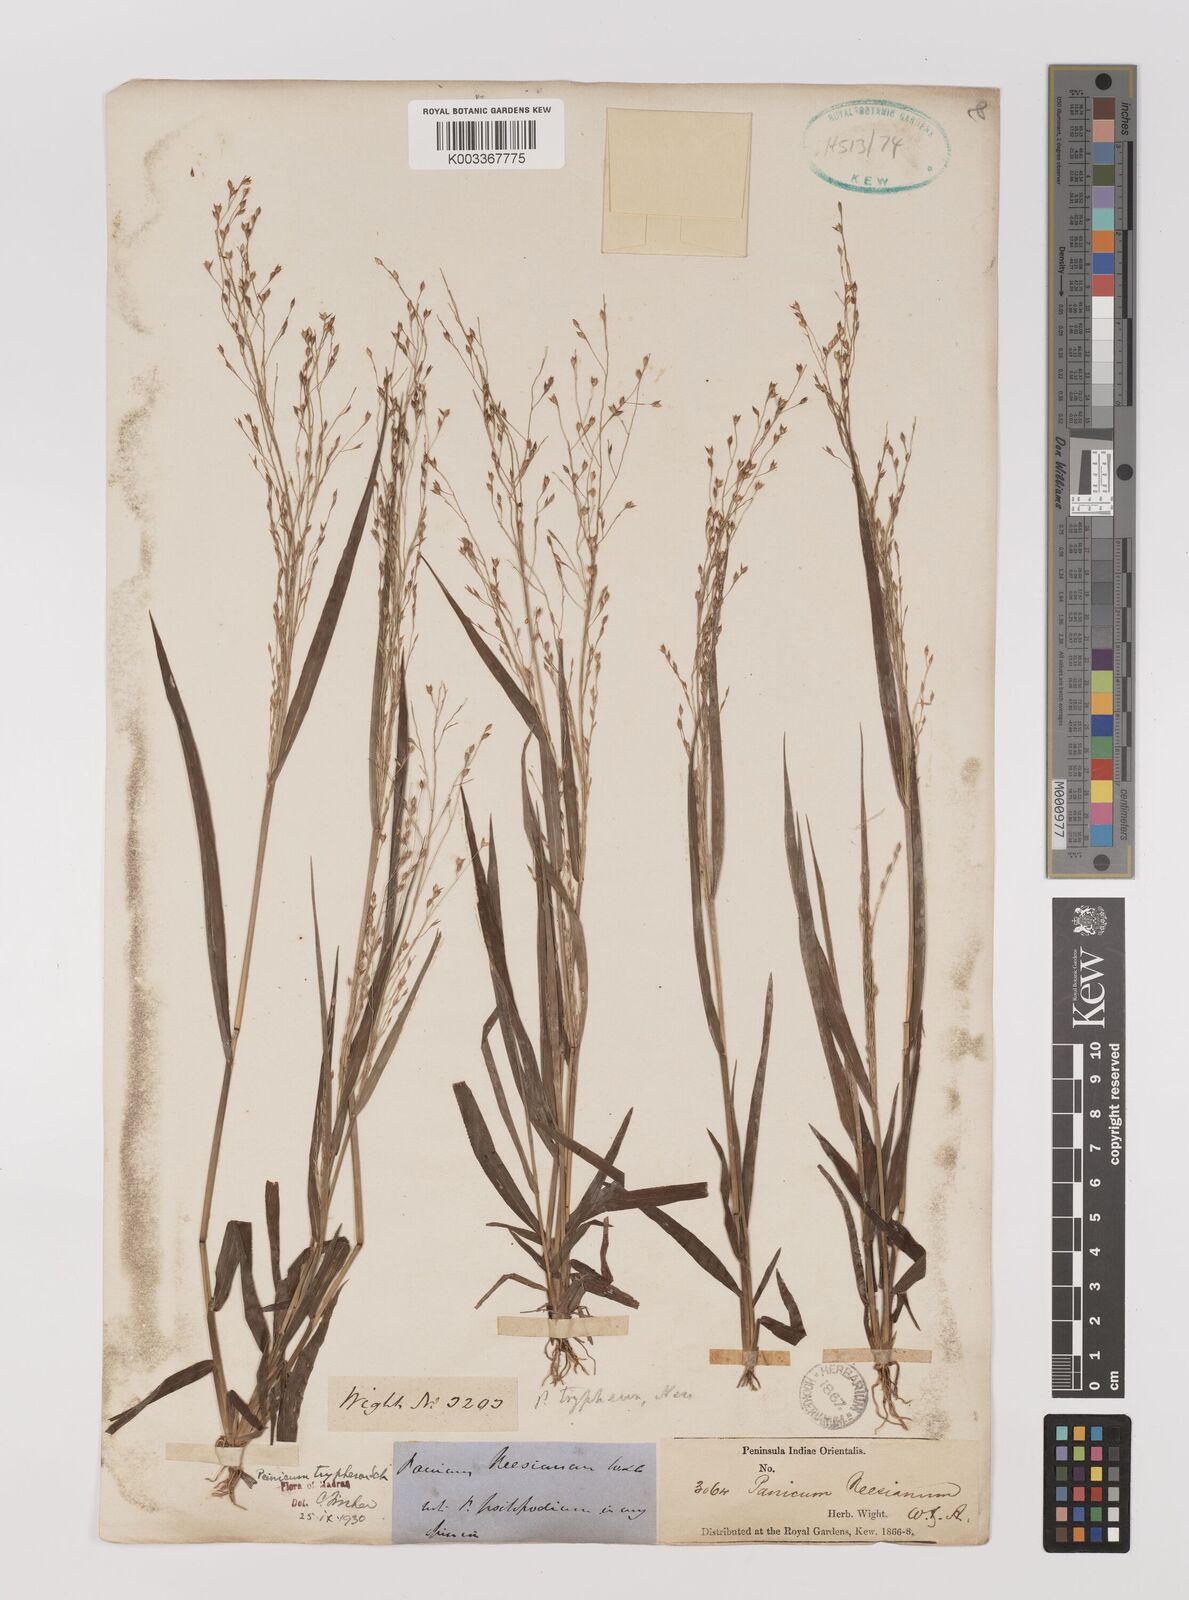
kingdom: Plantae
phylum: Tracheophyta
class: Liliopsida
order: Poales
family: Poaceae
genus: Panicum
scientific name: Panicum curviflorum
